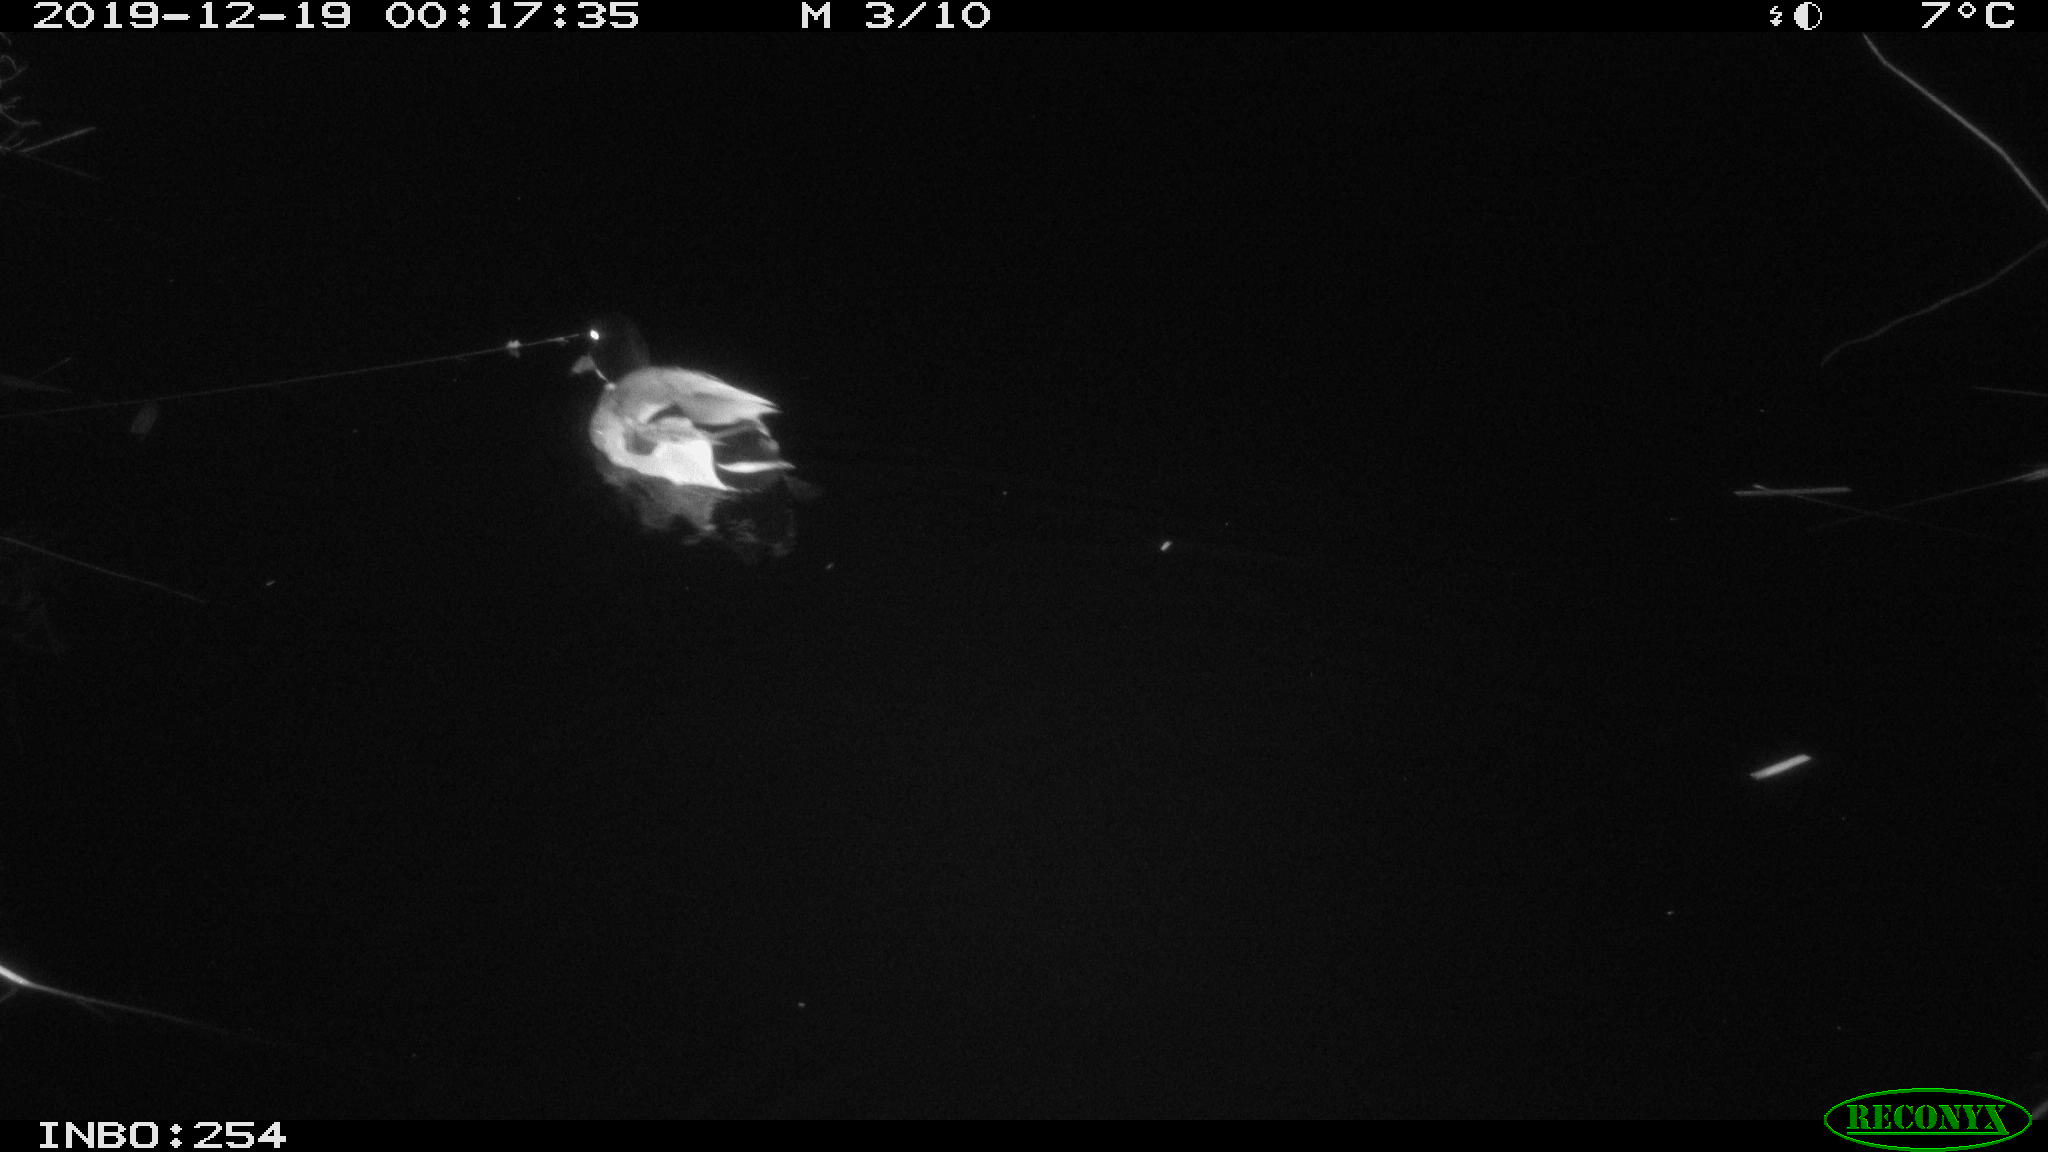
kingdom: Animalia
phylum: Chordata
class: Aves
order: Anseriformes
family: Anatidae
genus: Anas
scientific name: Anas platyrhynchos
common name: Mallard
